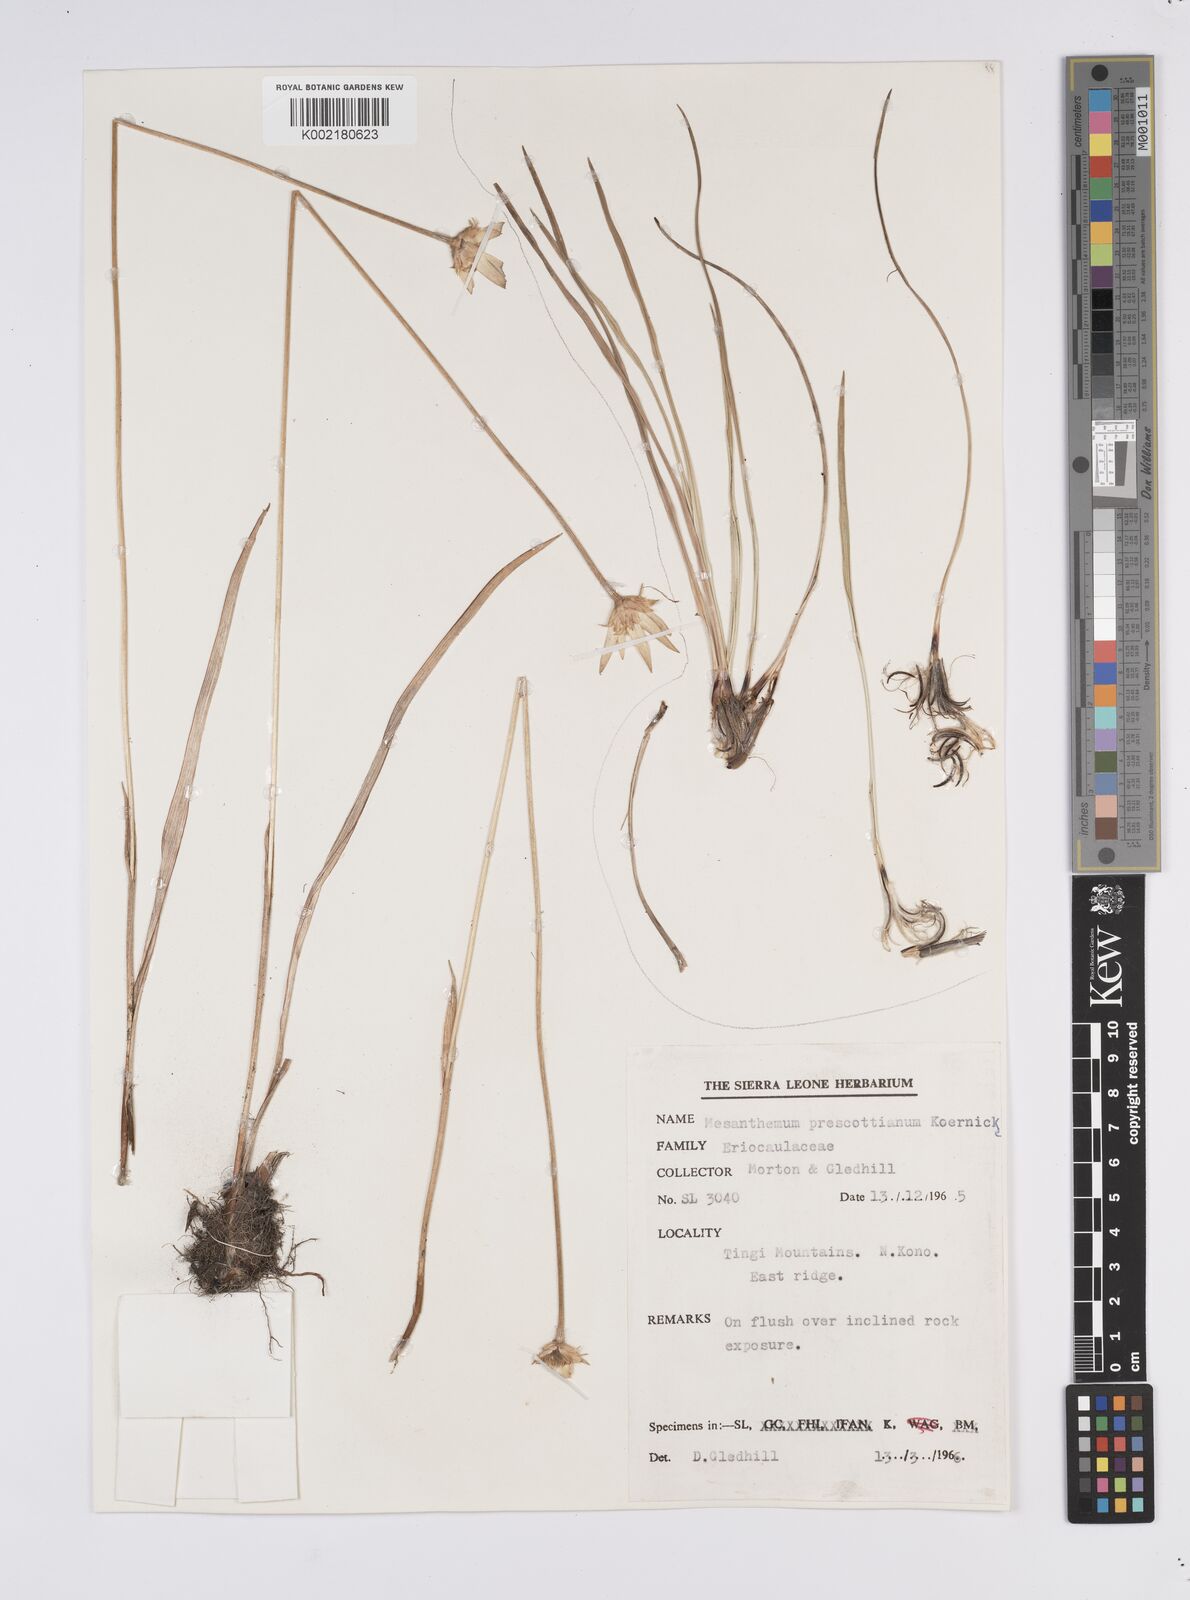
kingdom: Plantae
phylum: Tracheophyta
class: Liliopsida
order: Poales
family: Eriocaulaceae
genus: Mesanthemum
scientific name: Mesanthemum prescottianum
